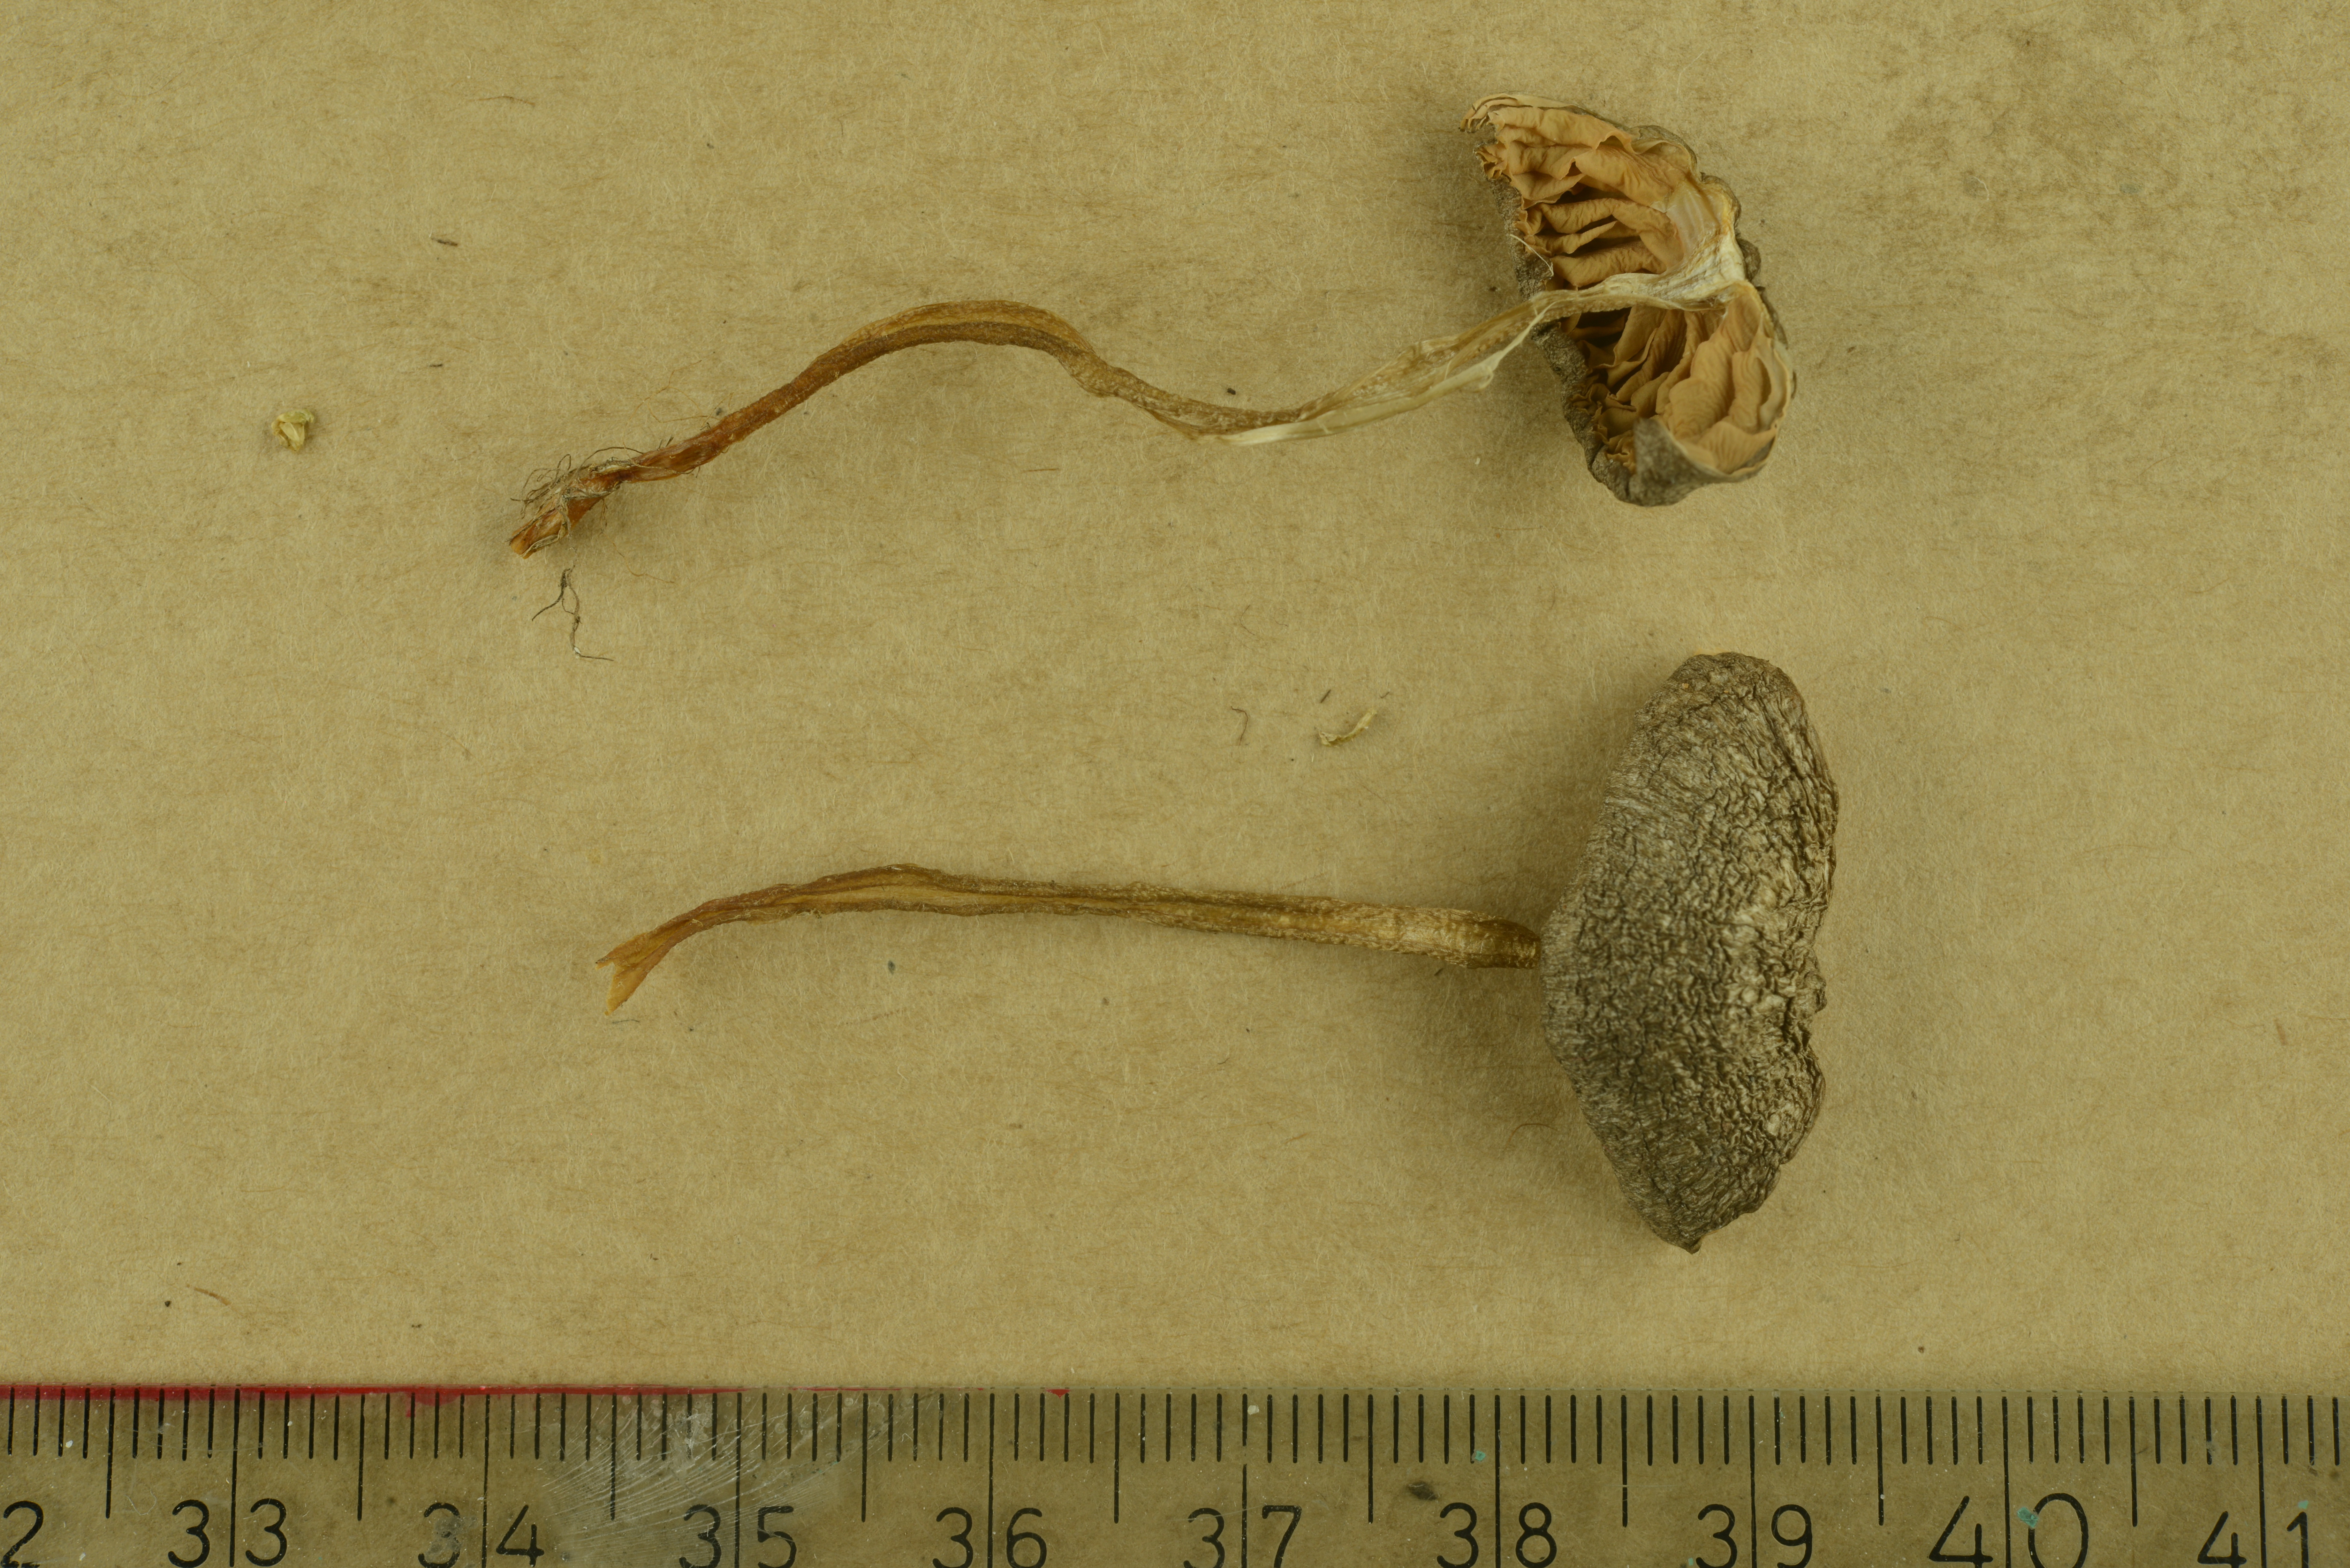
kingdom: Fungi
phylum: Basidiomycota
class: Agaricomycetes
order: Agaricales
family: Entolomataceae
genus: Entoloma
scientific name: Entoloma rhombisporum
